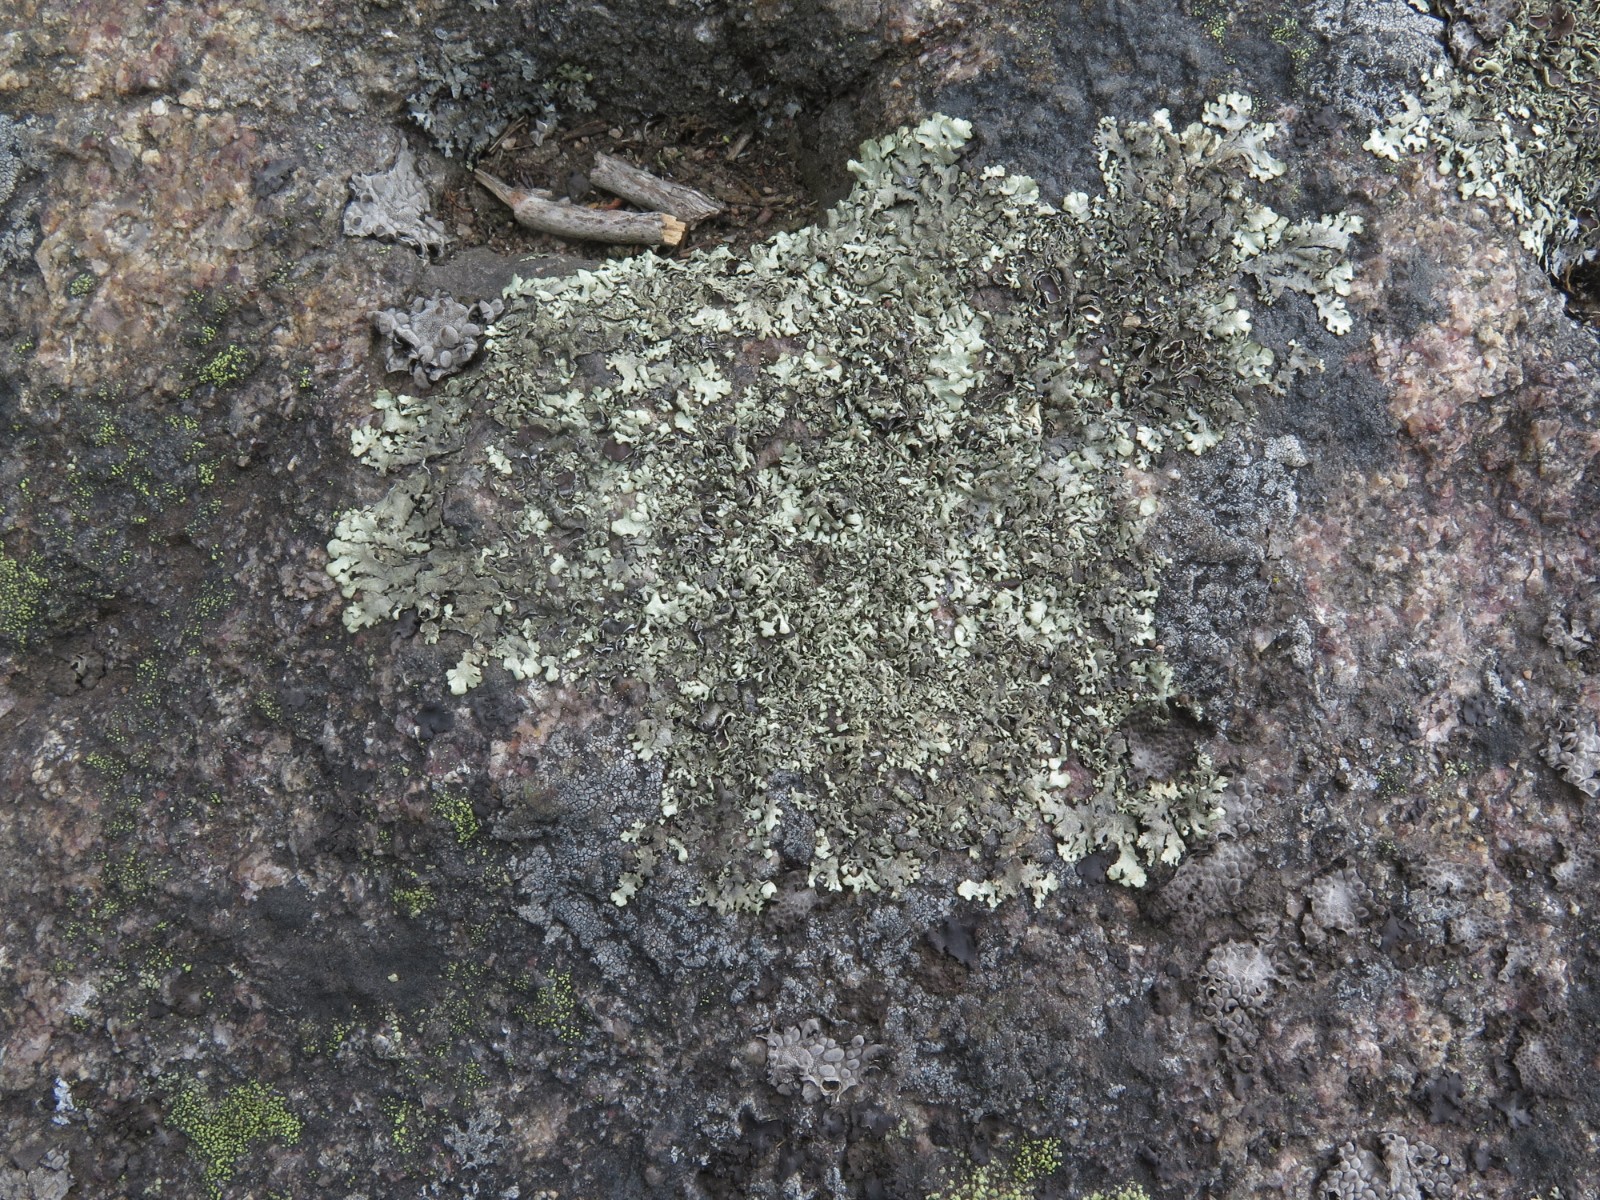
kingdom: Fungi
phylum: Ascomycota
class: Lecanoromycetes
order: Lecanorales
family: Parmeliaceae
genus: Xanthoparmelia
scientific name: Xanthoparmelia conspersa
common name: messing-skållav
